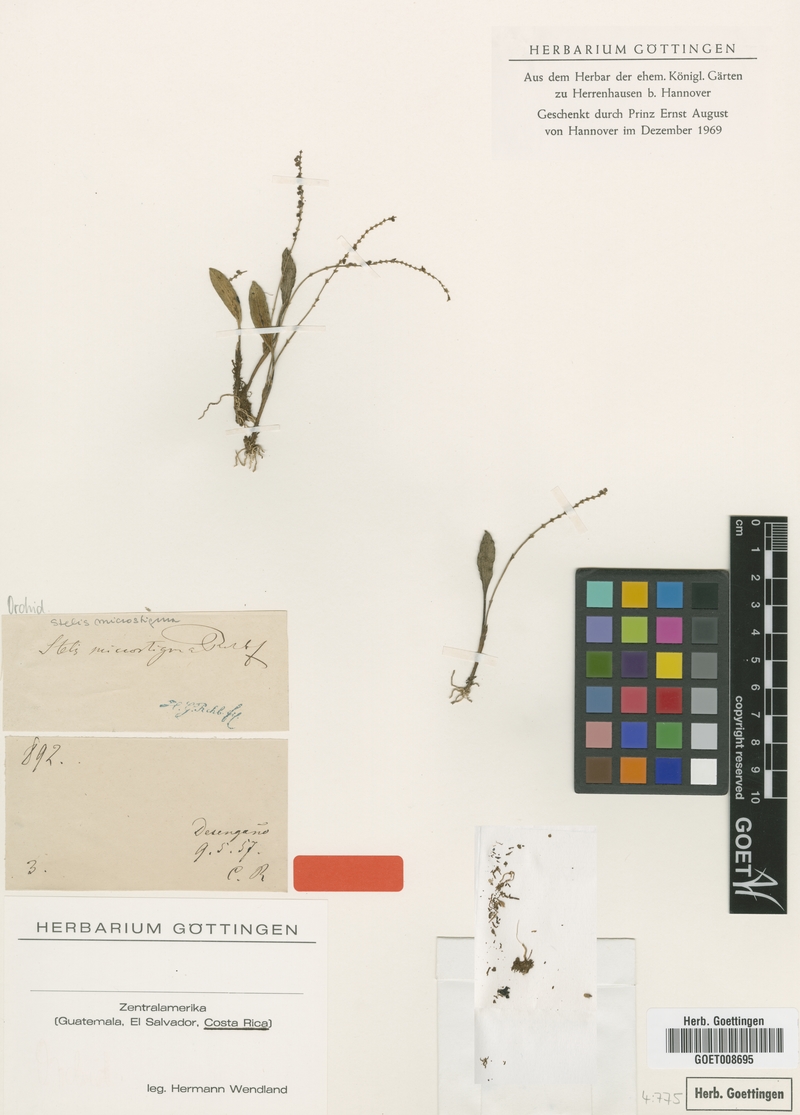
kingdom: Plantae
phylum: Tracheophyta
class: Liliopsida
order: Asparagales
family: Orchidaceae
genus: Stelis
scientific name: Stelis microstigma
